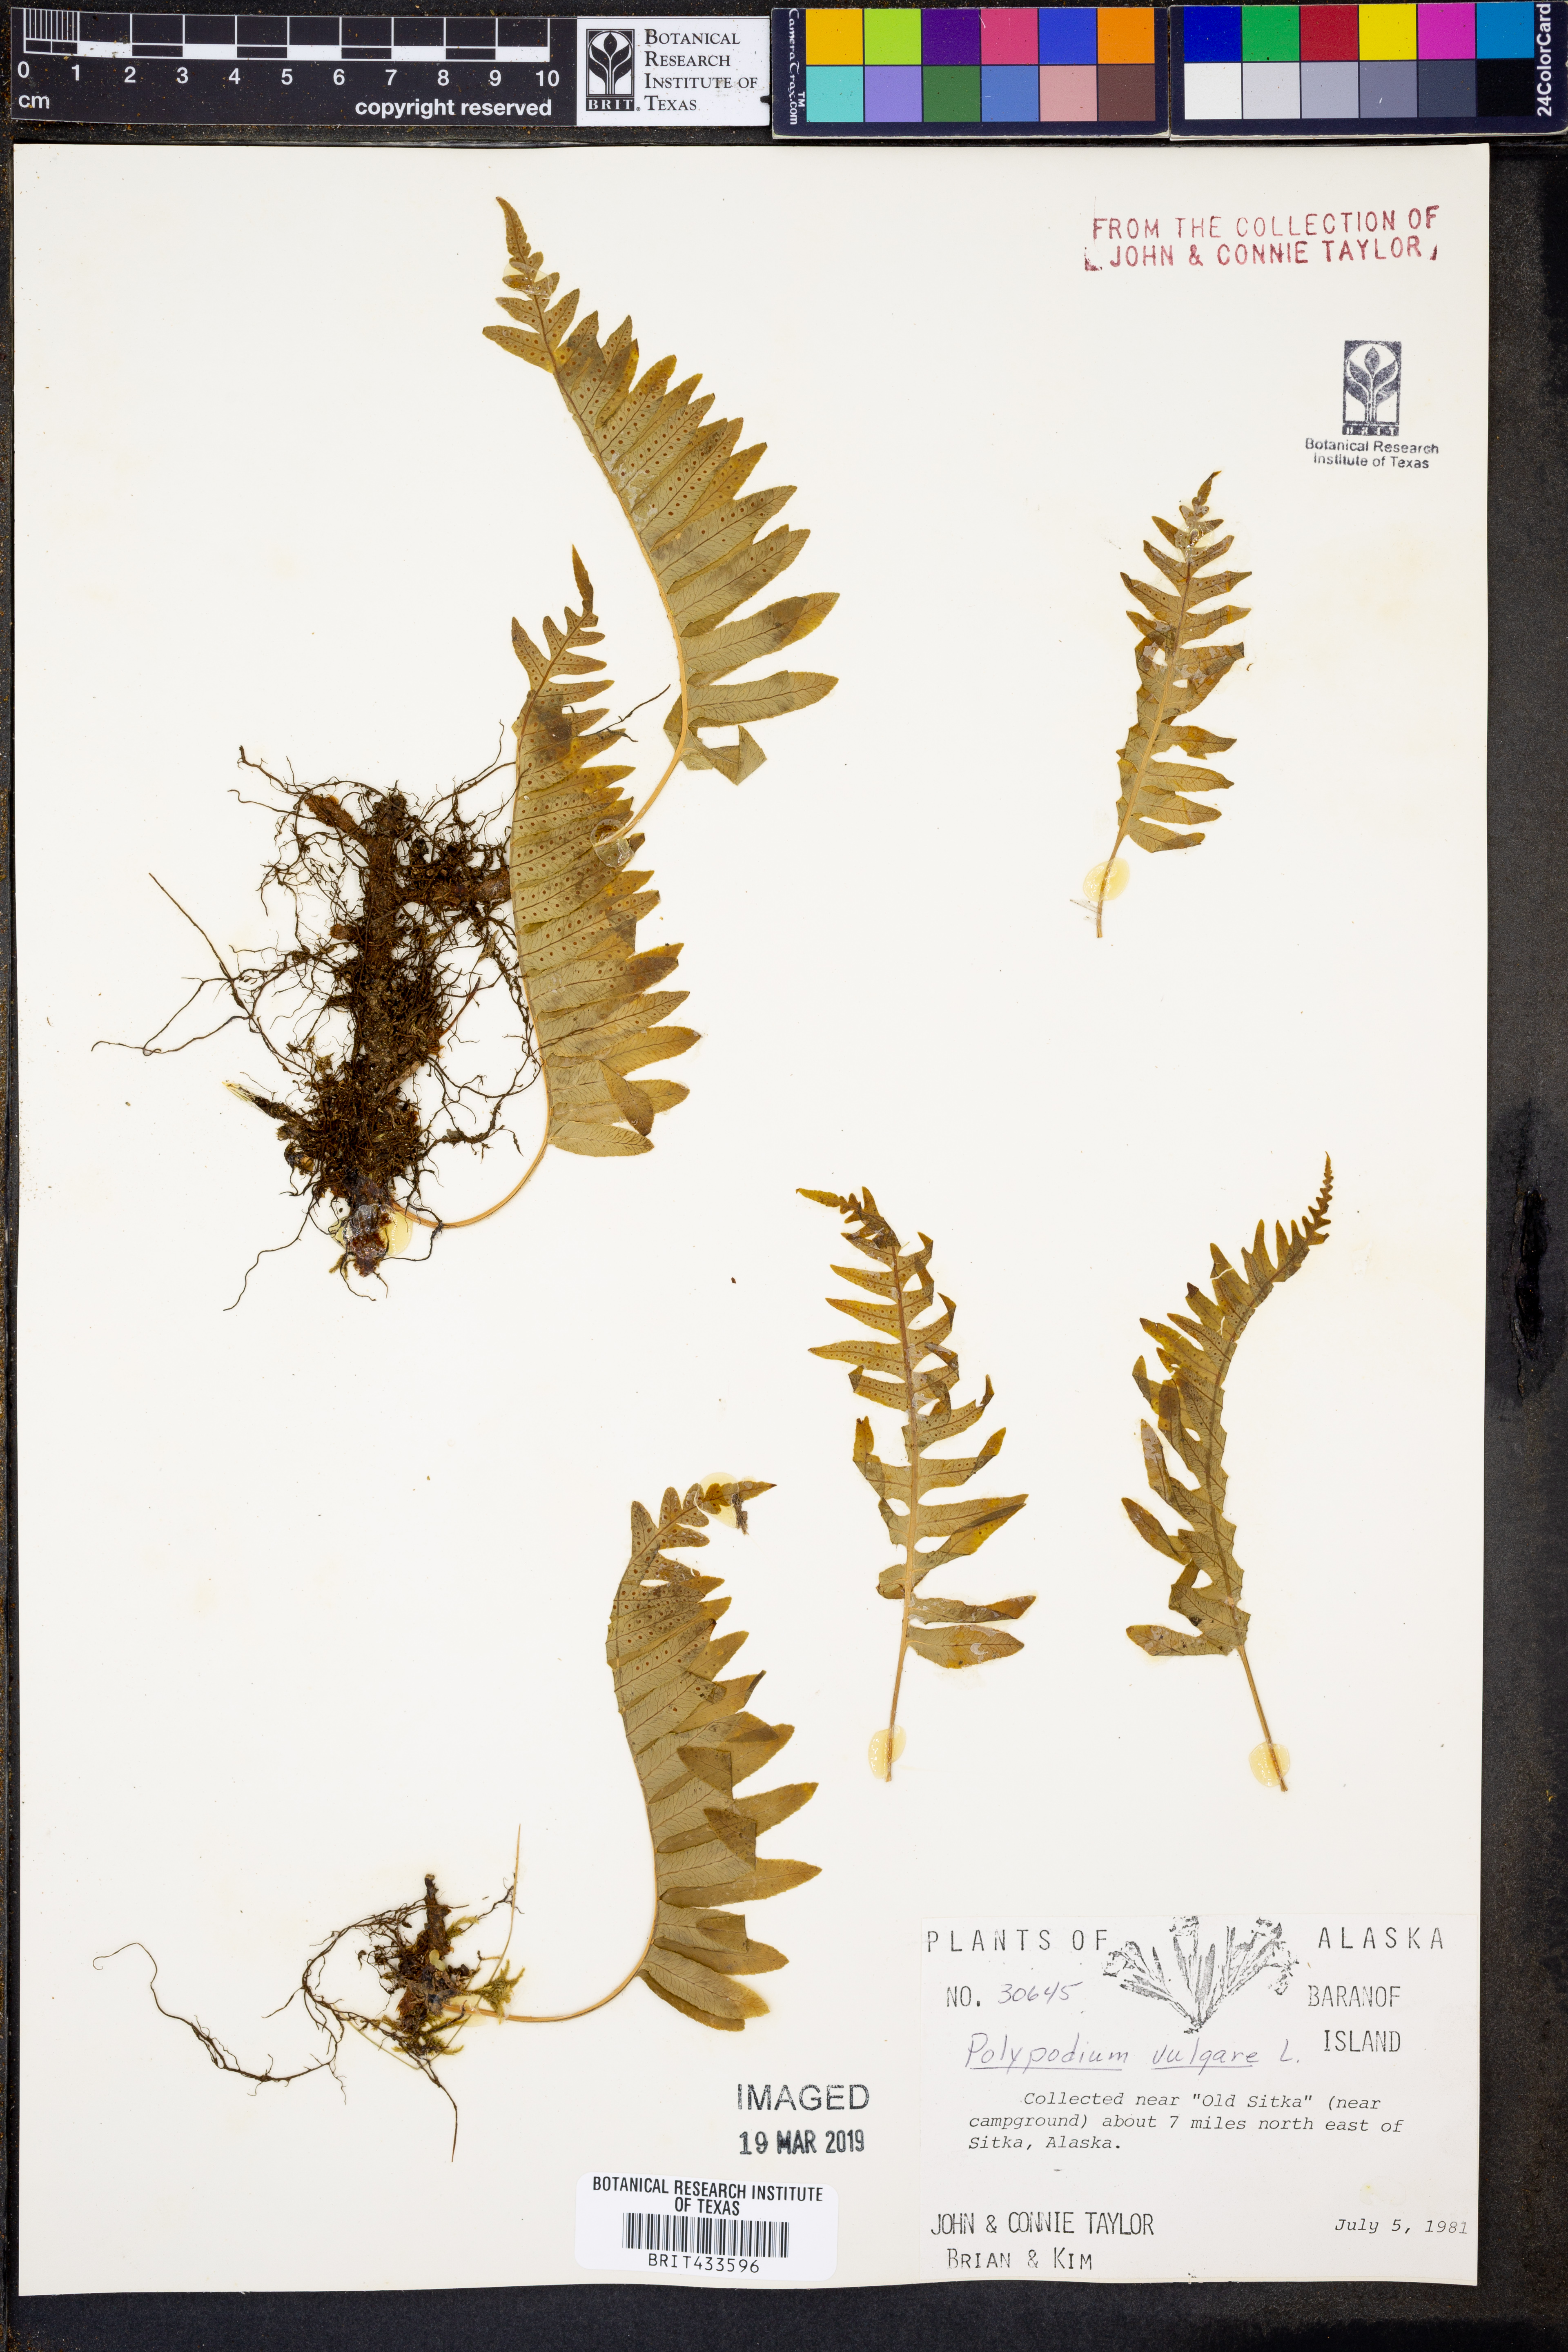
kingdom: Plantae
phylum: Tracheophyta
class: Polypodiopsida
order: Polypodiales
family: Polypodiaceae
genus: Polypodium
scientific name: Polypodium vulgare
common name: Common polypody
